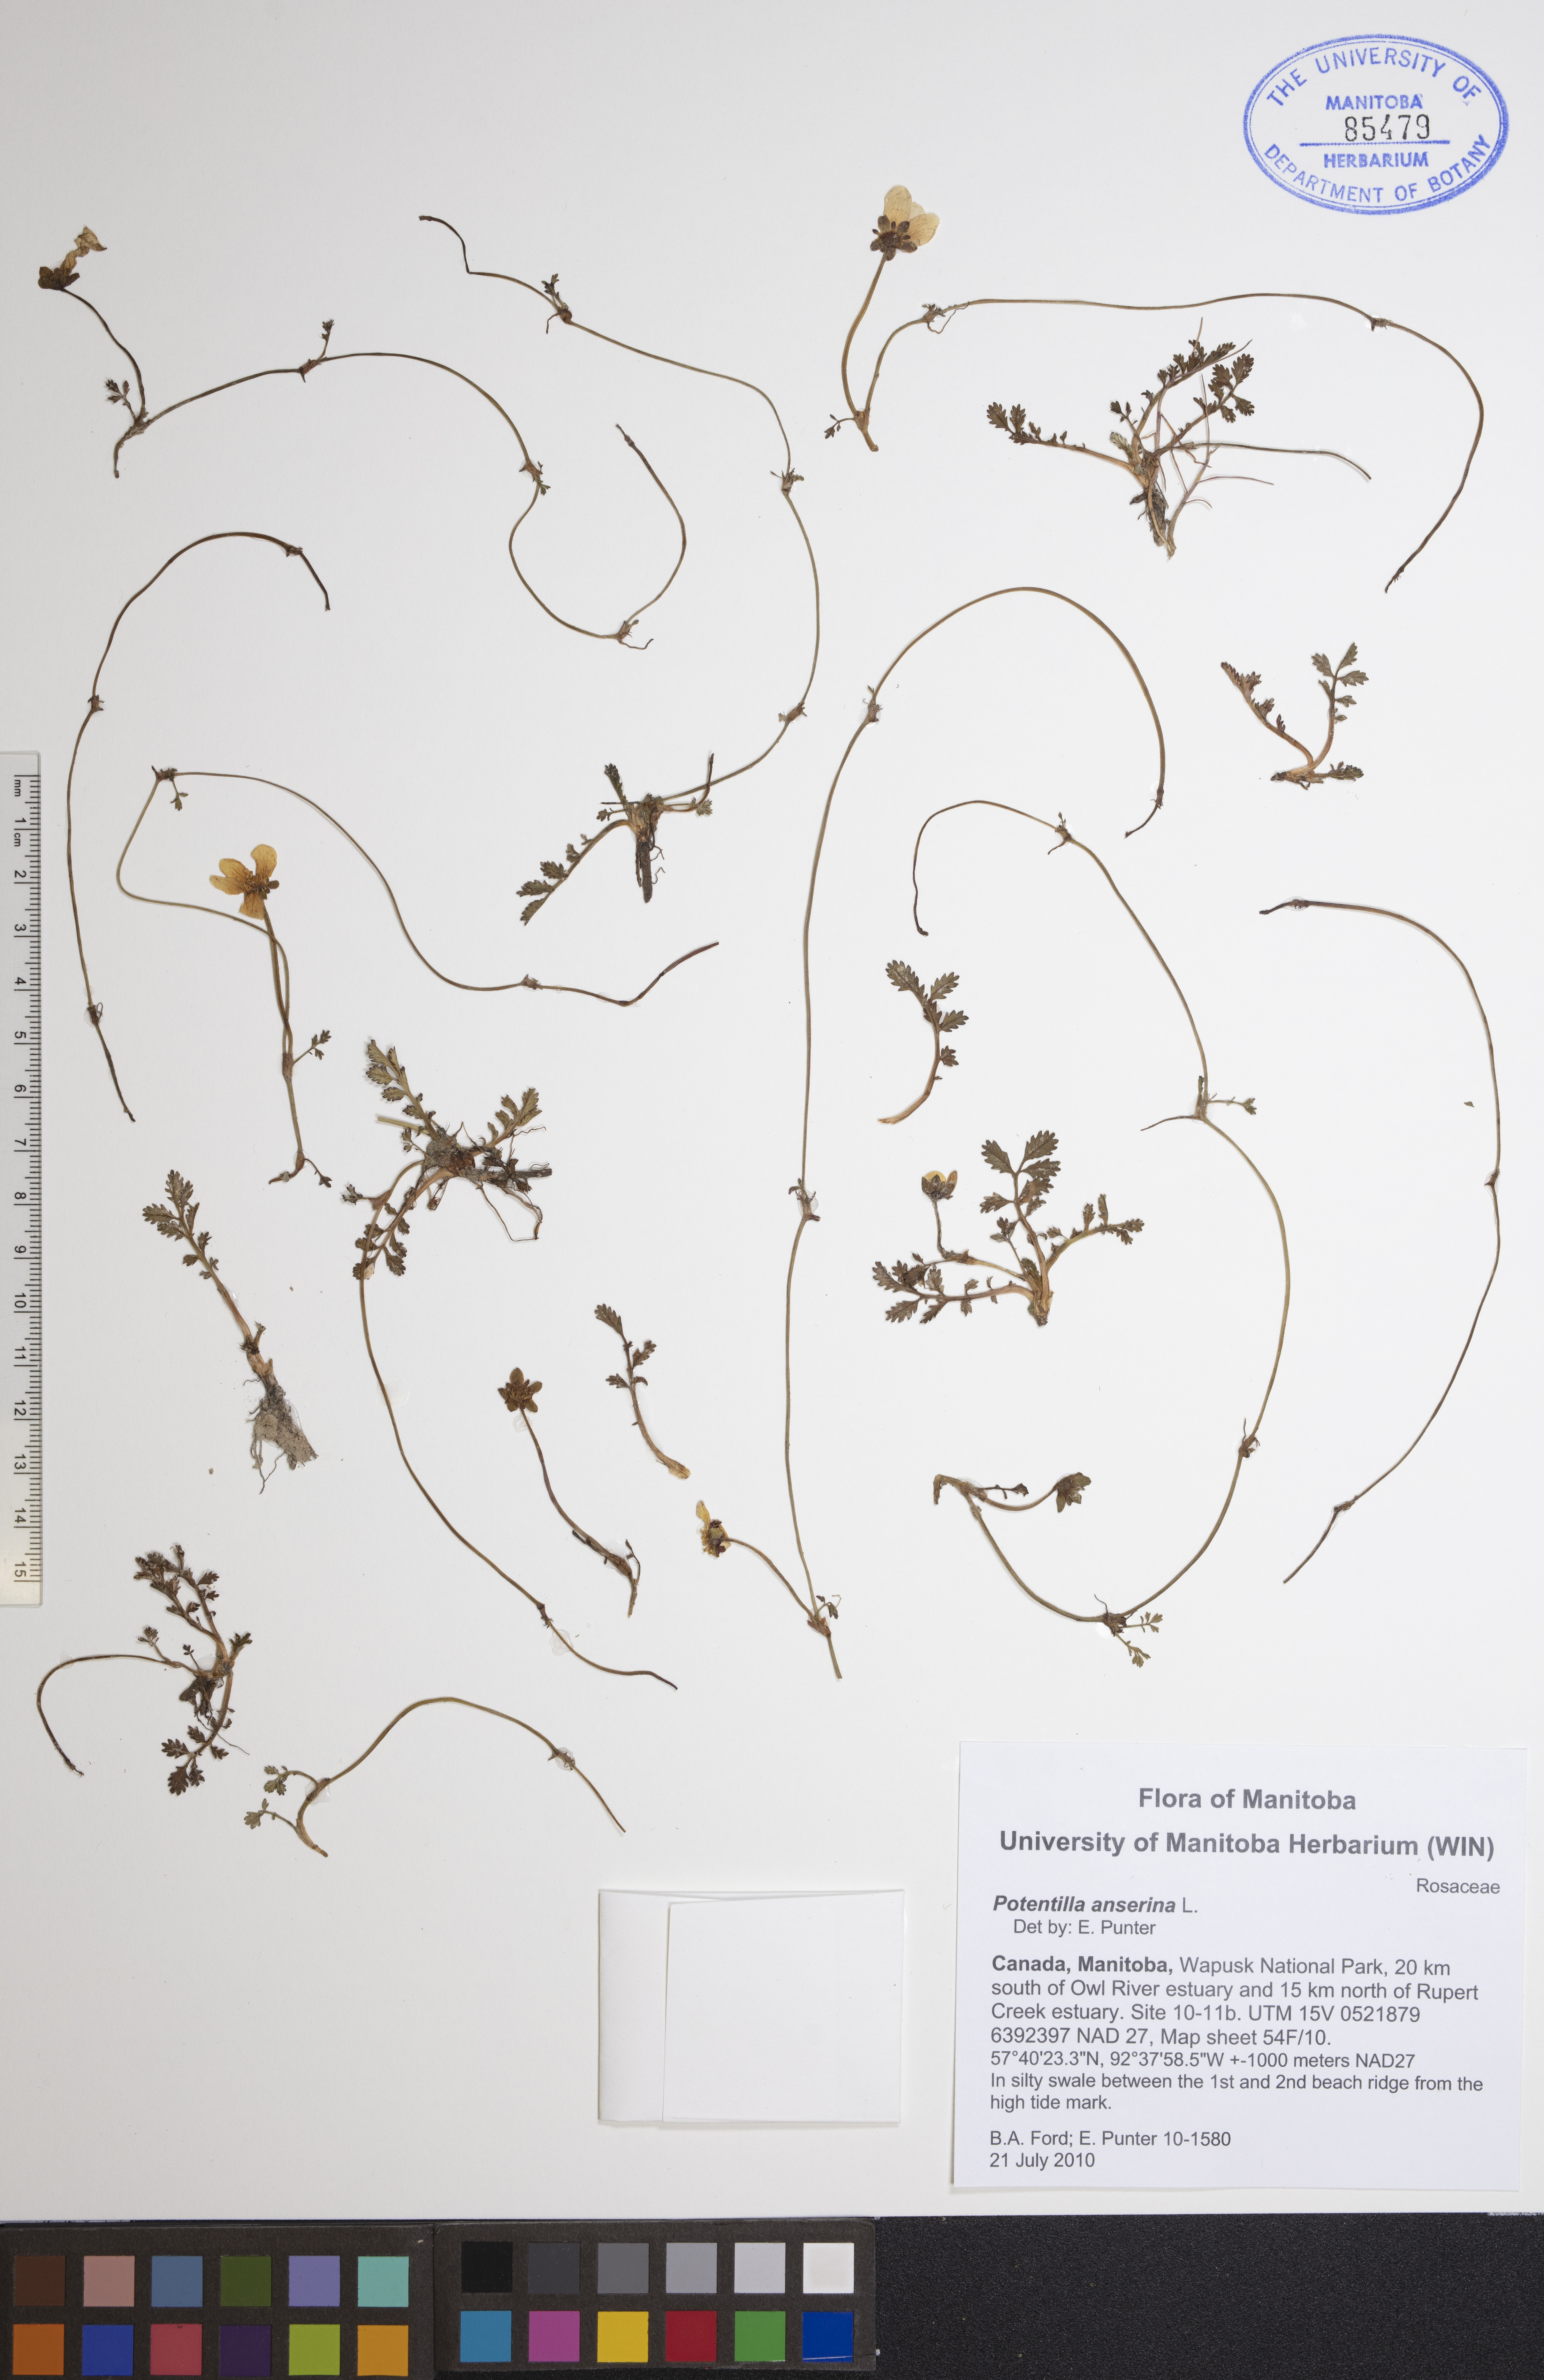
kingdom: Plantae
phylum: Tracheophyta
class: Magnoliopsida
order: Rosales
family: Rosaceae
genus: Argentina
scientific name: Argentina anserina
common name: Common silverweed
